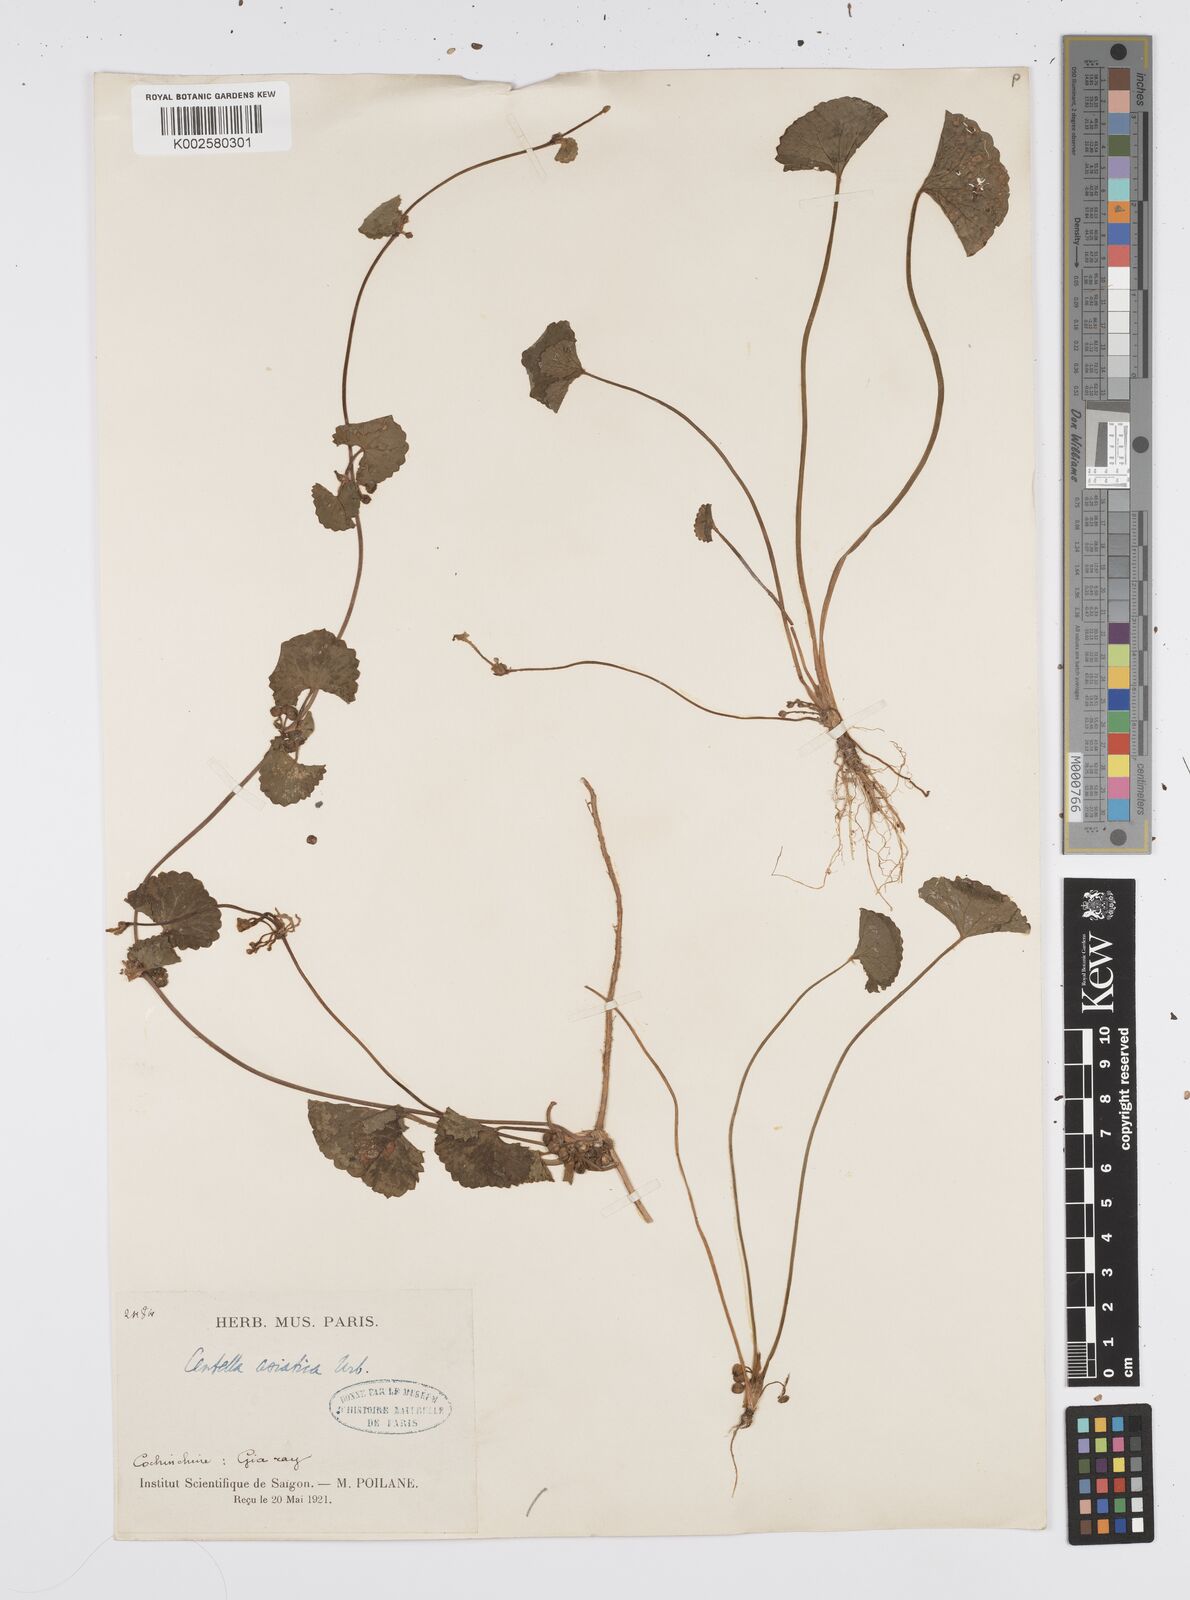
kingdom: Plantae
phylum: Tracheophyta
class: Magnoliopsida
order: Apiales
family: Apiaceae
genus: Centella
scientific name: Centella asiatica
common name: Spadeleaf
